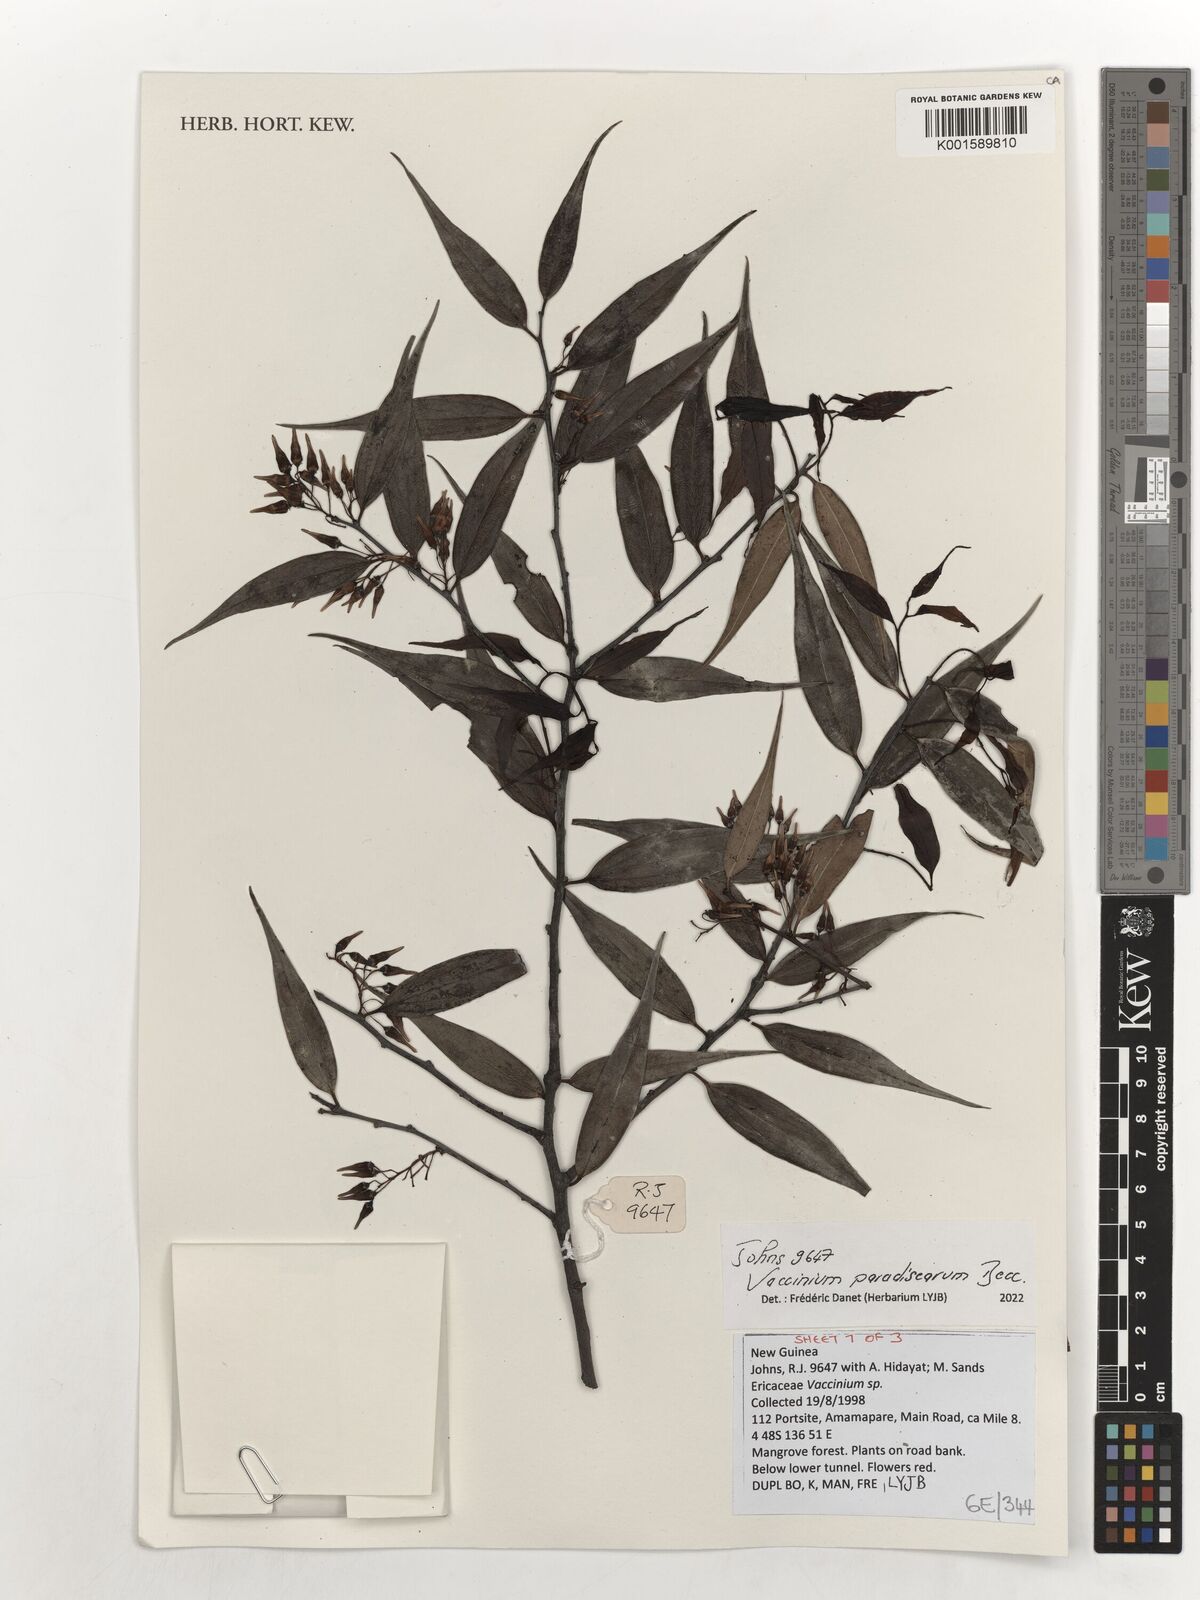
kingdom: Plantae
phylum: Tracheophyta
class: Magnoliopsida
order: Ericales
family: Ericaceae
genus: Vaccinium
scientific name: Vaccinium paradisearum
